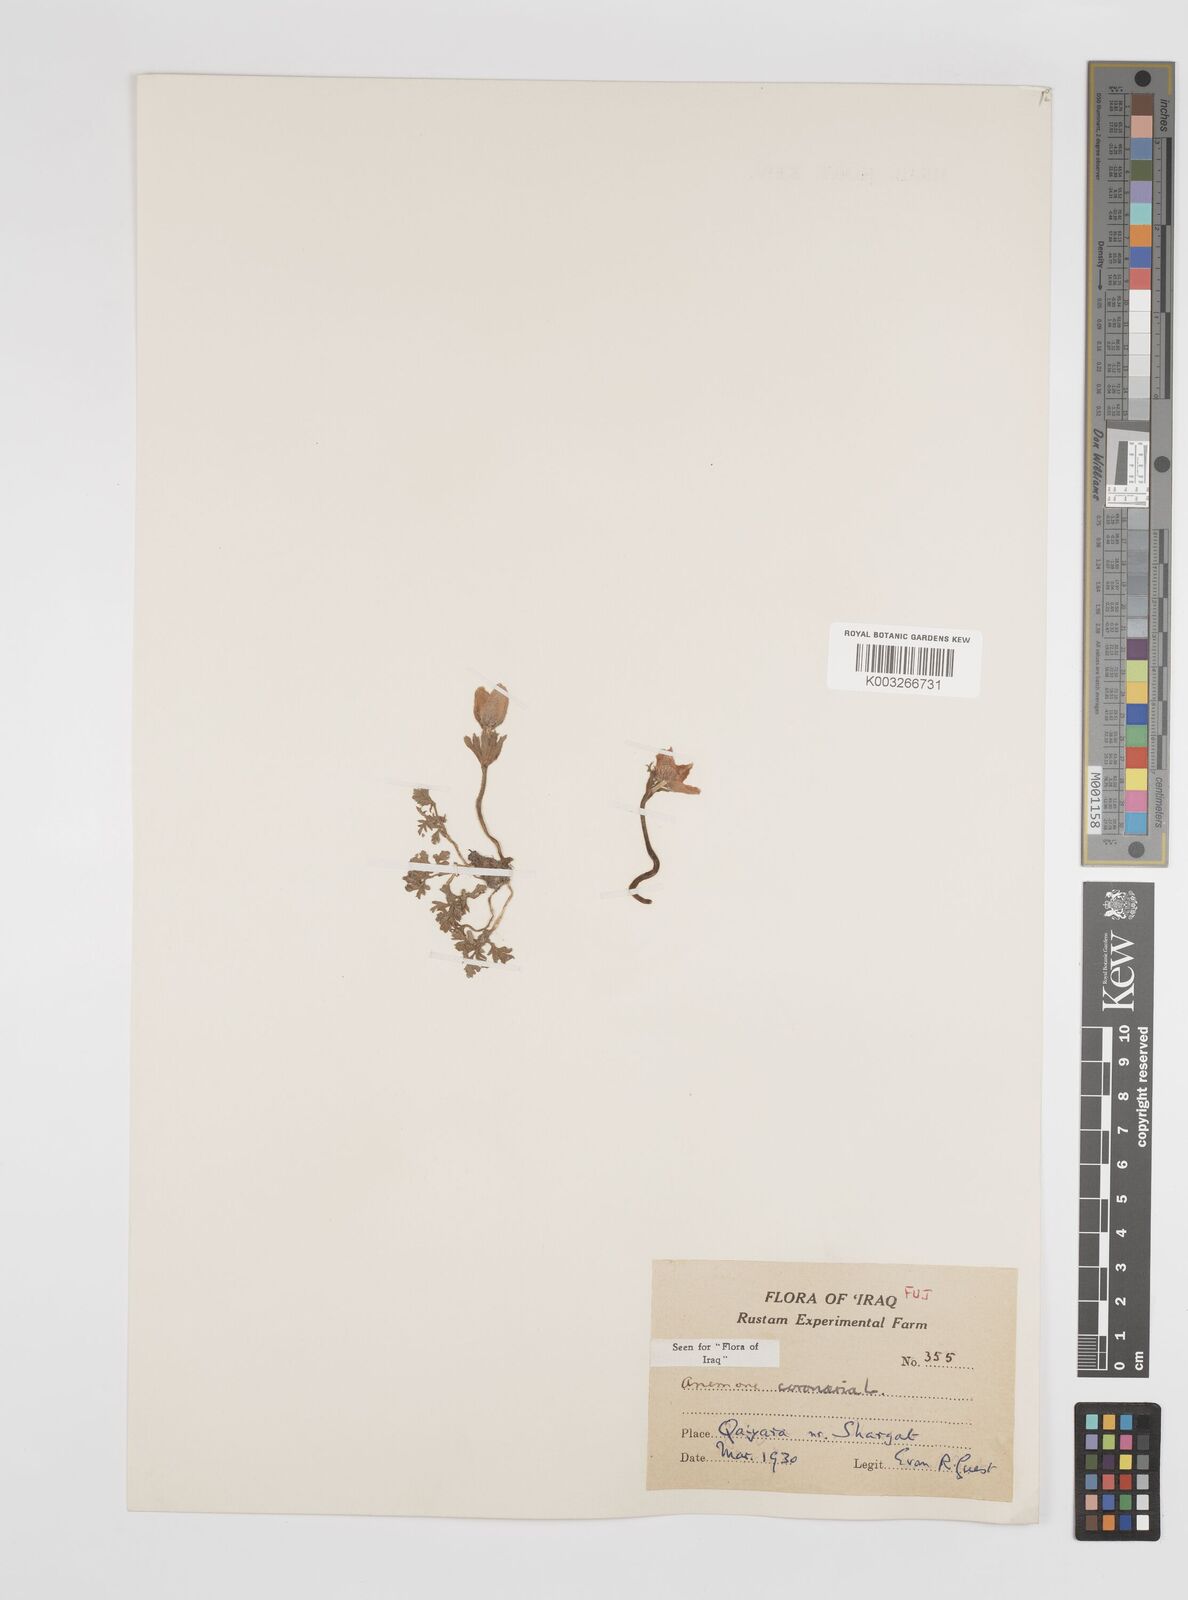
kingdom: Plantae
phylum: Tracheophyta
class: Magnoliopsida
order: Ranunculales
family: Ranunculaceae
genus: Anemone
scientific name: Anemone coronaria
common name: Poppy anemone
